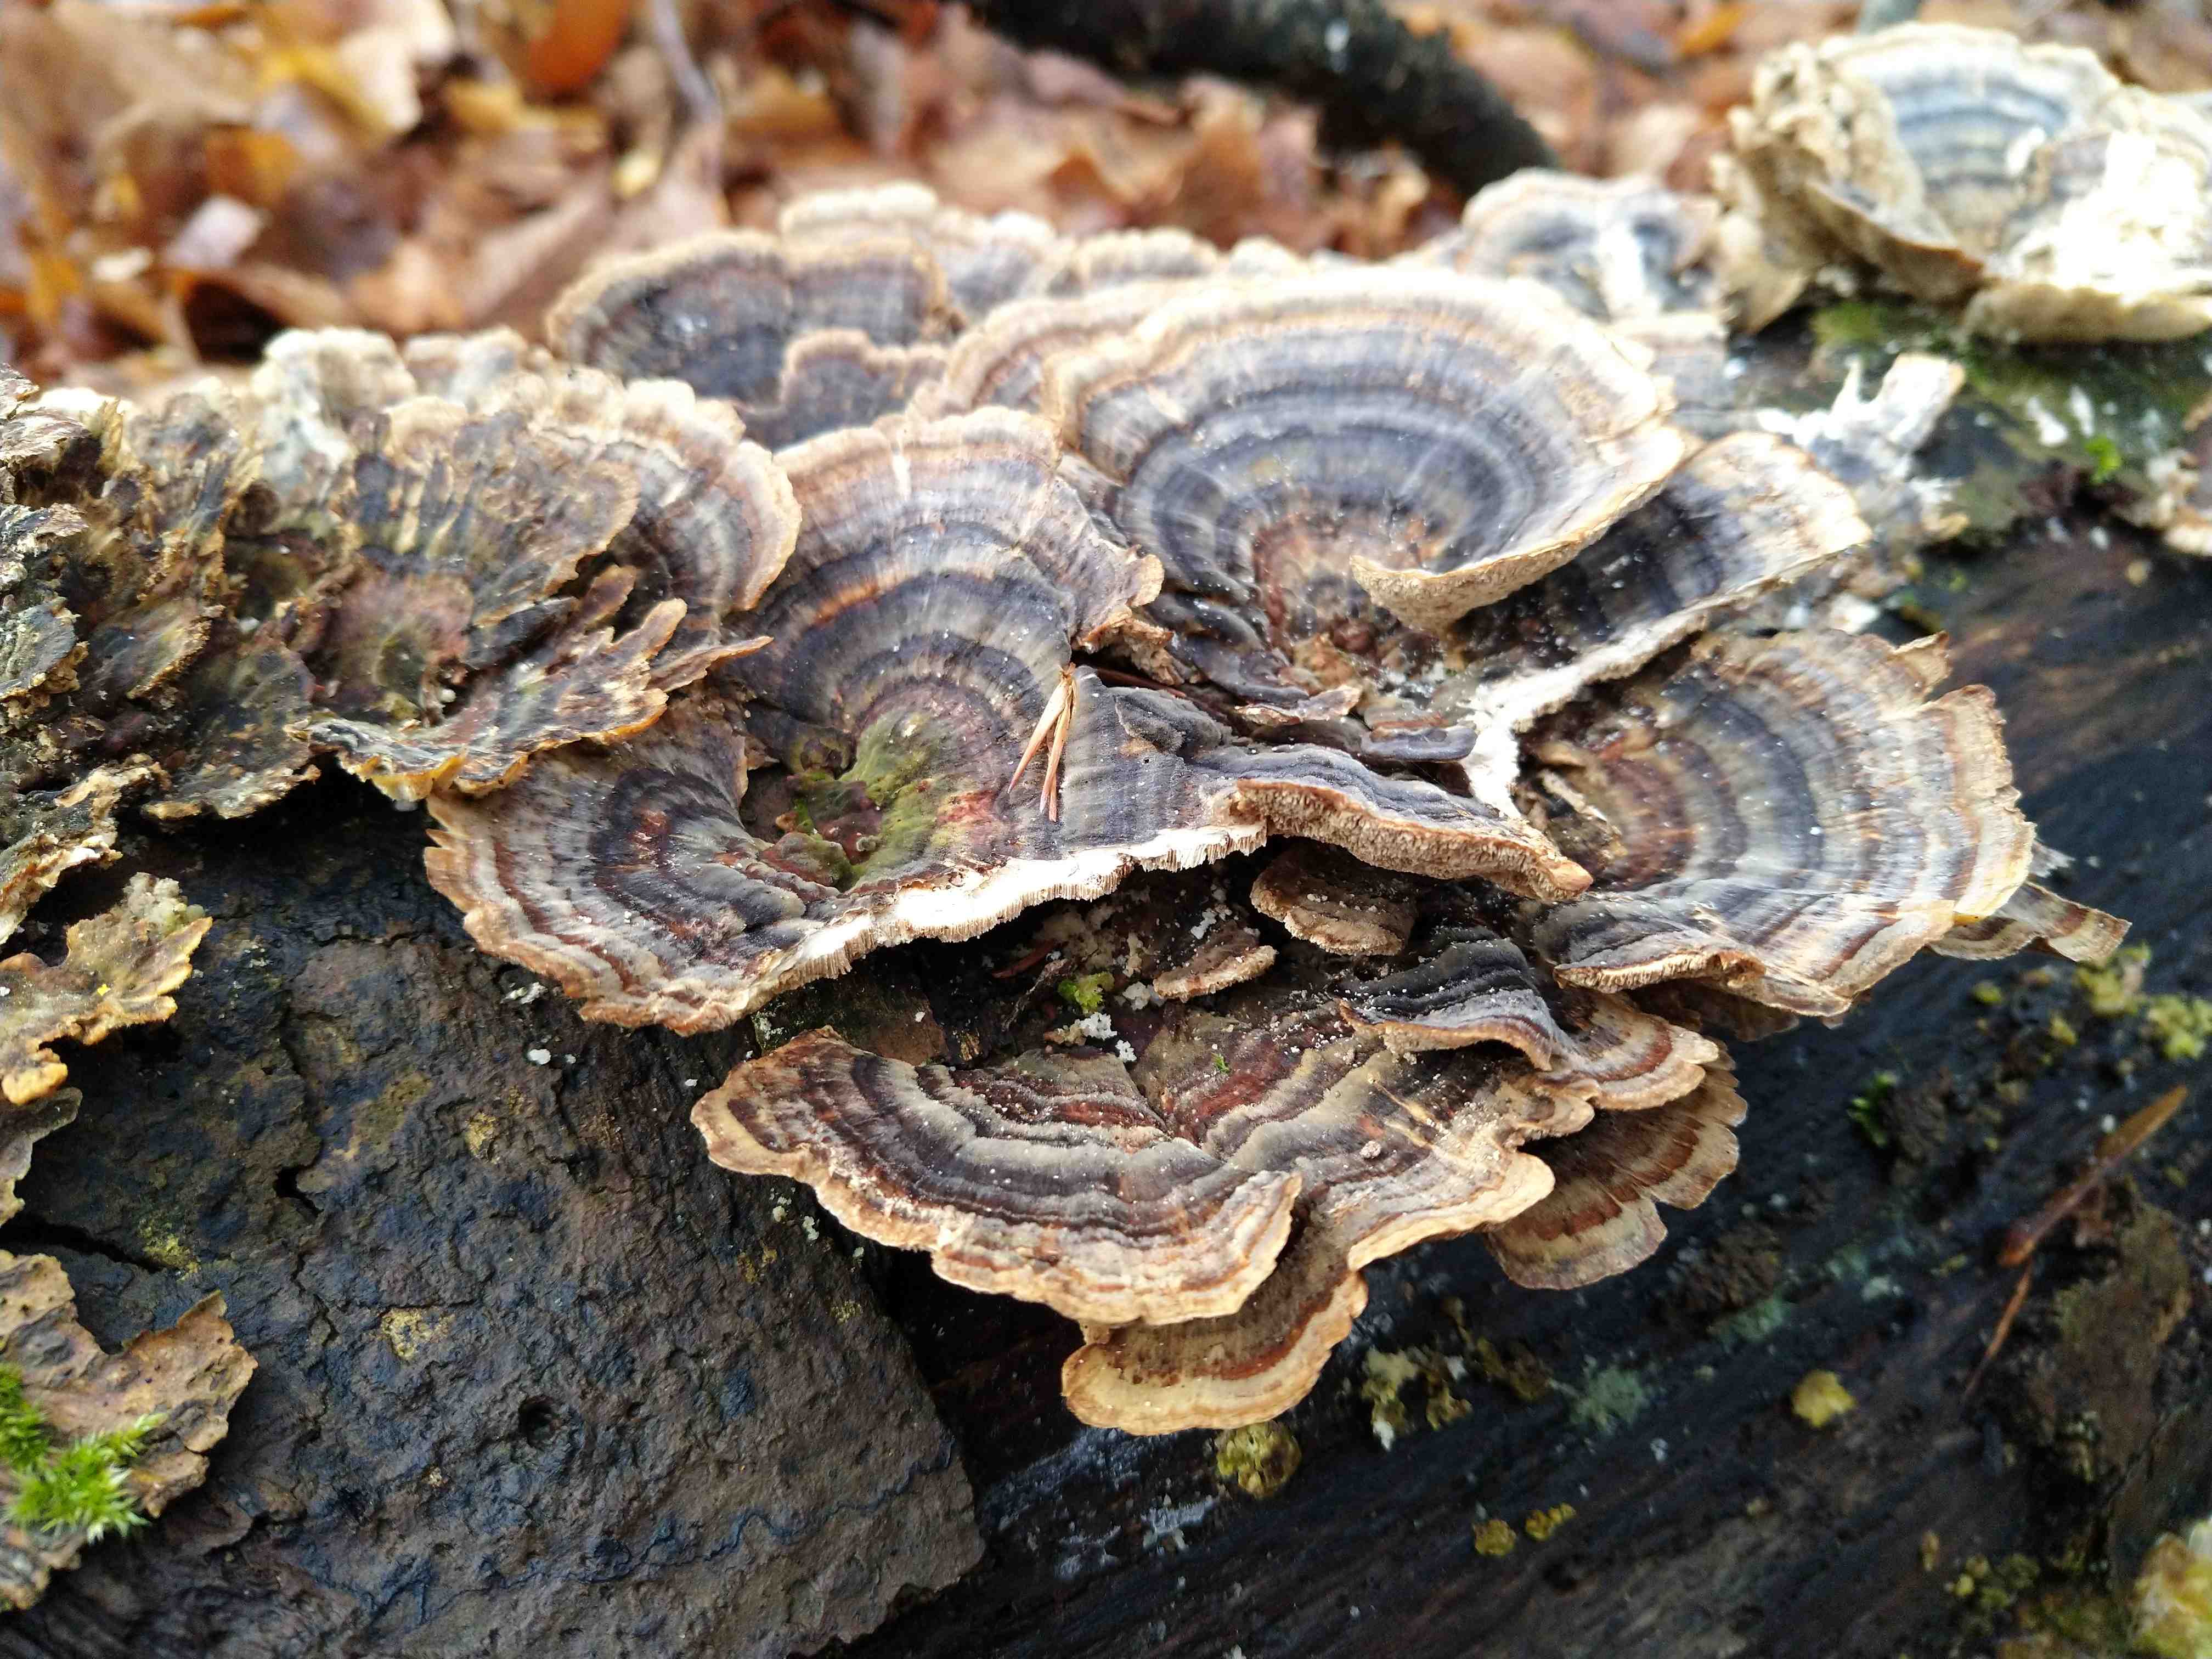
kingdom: Fungi
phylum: Basidiomycota
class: Agaricomycetes
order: Polyporales
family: Polyporaceae
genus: Trametes
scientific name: Trametes versicolor
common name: broget læderporesvamp
